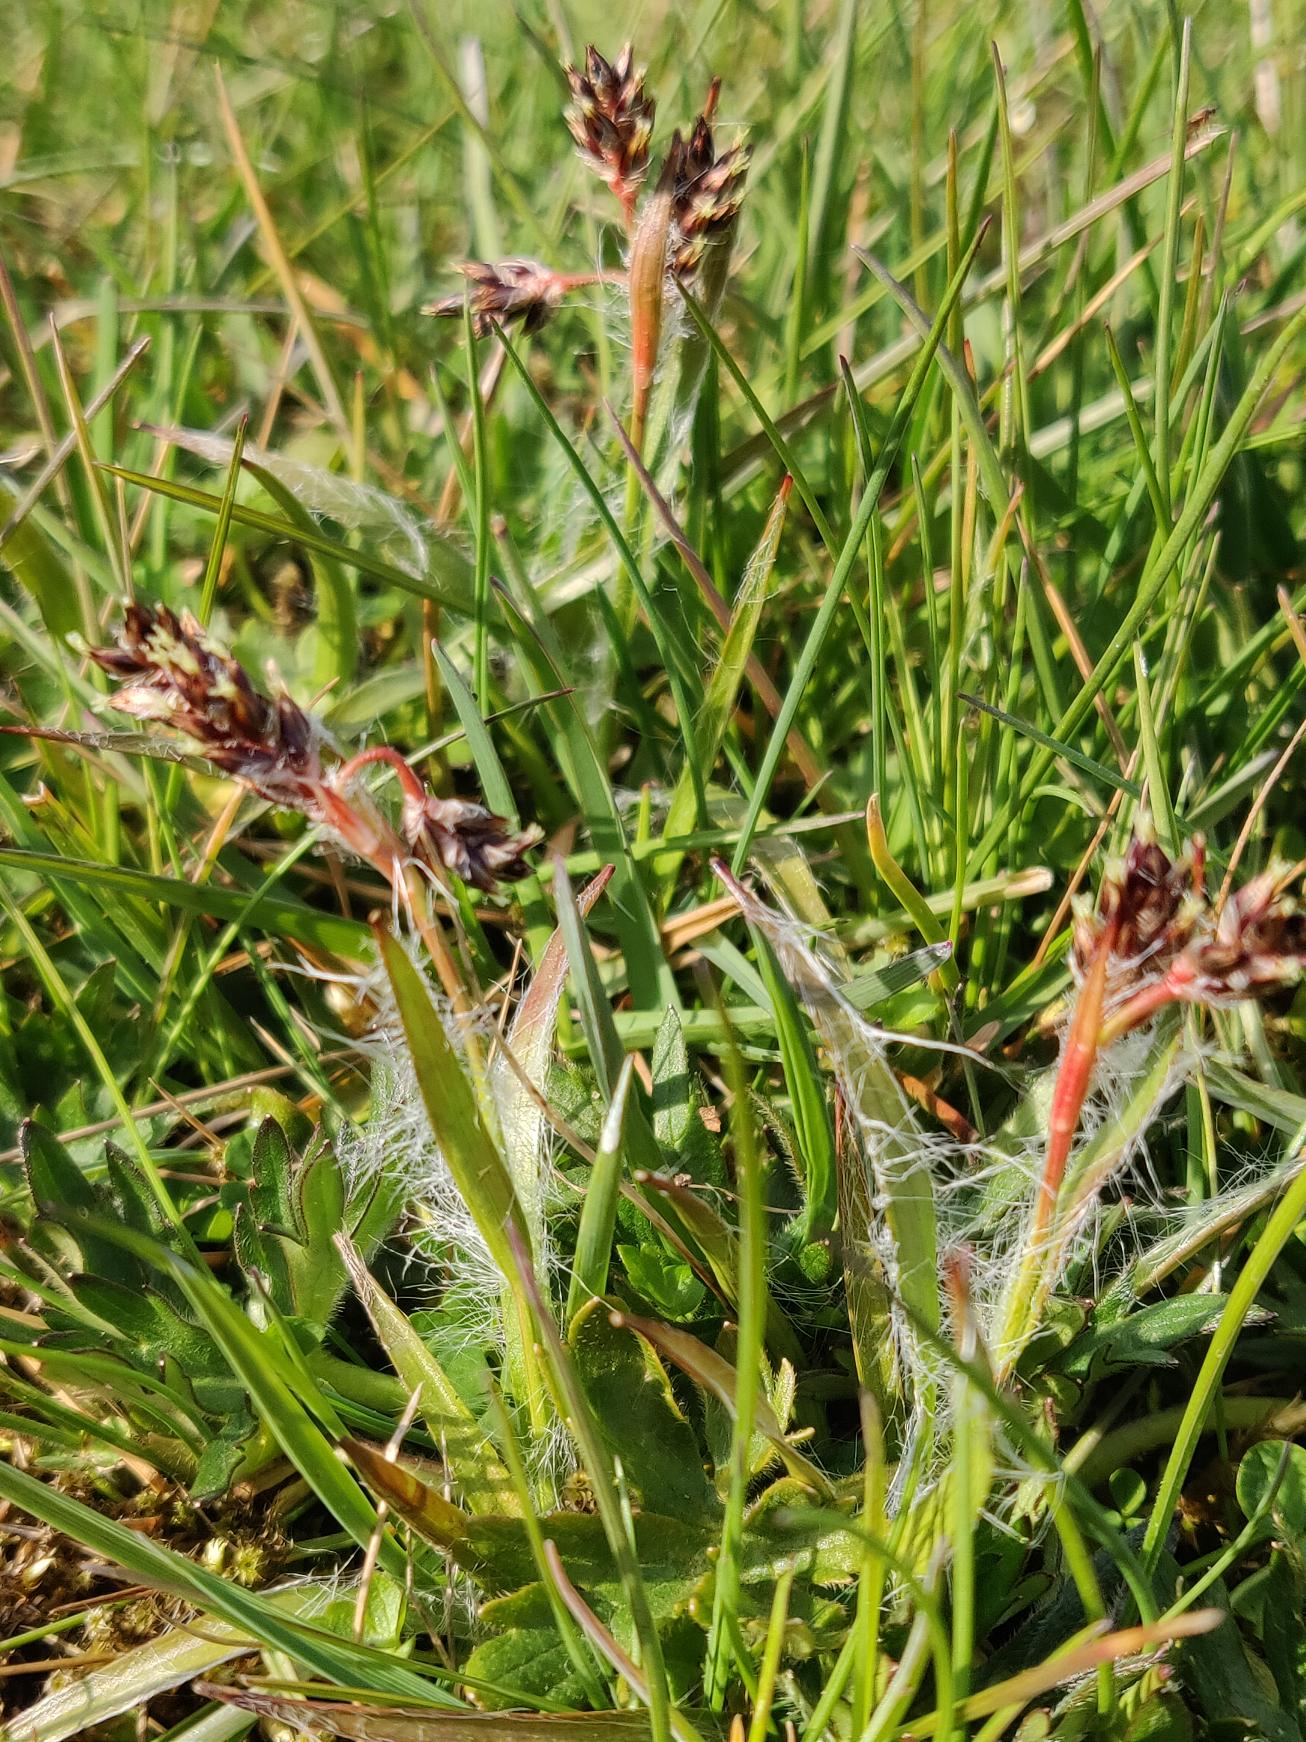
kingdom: Plantae
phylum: Tracheophyta
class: Liliopsida
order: Poales
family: Juncaceae
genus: Luzula
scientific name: Luzula campestris
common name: Mark-frytle
